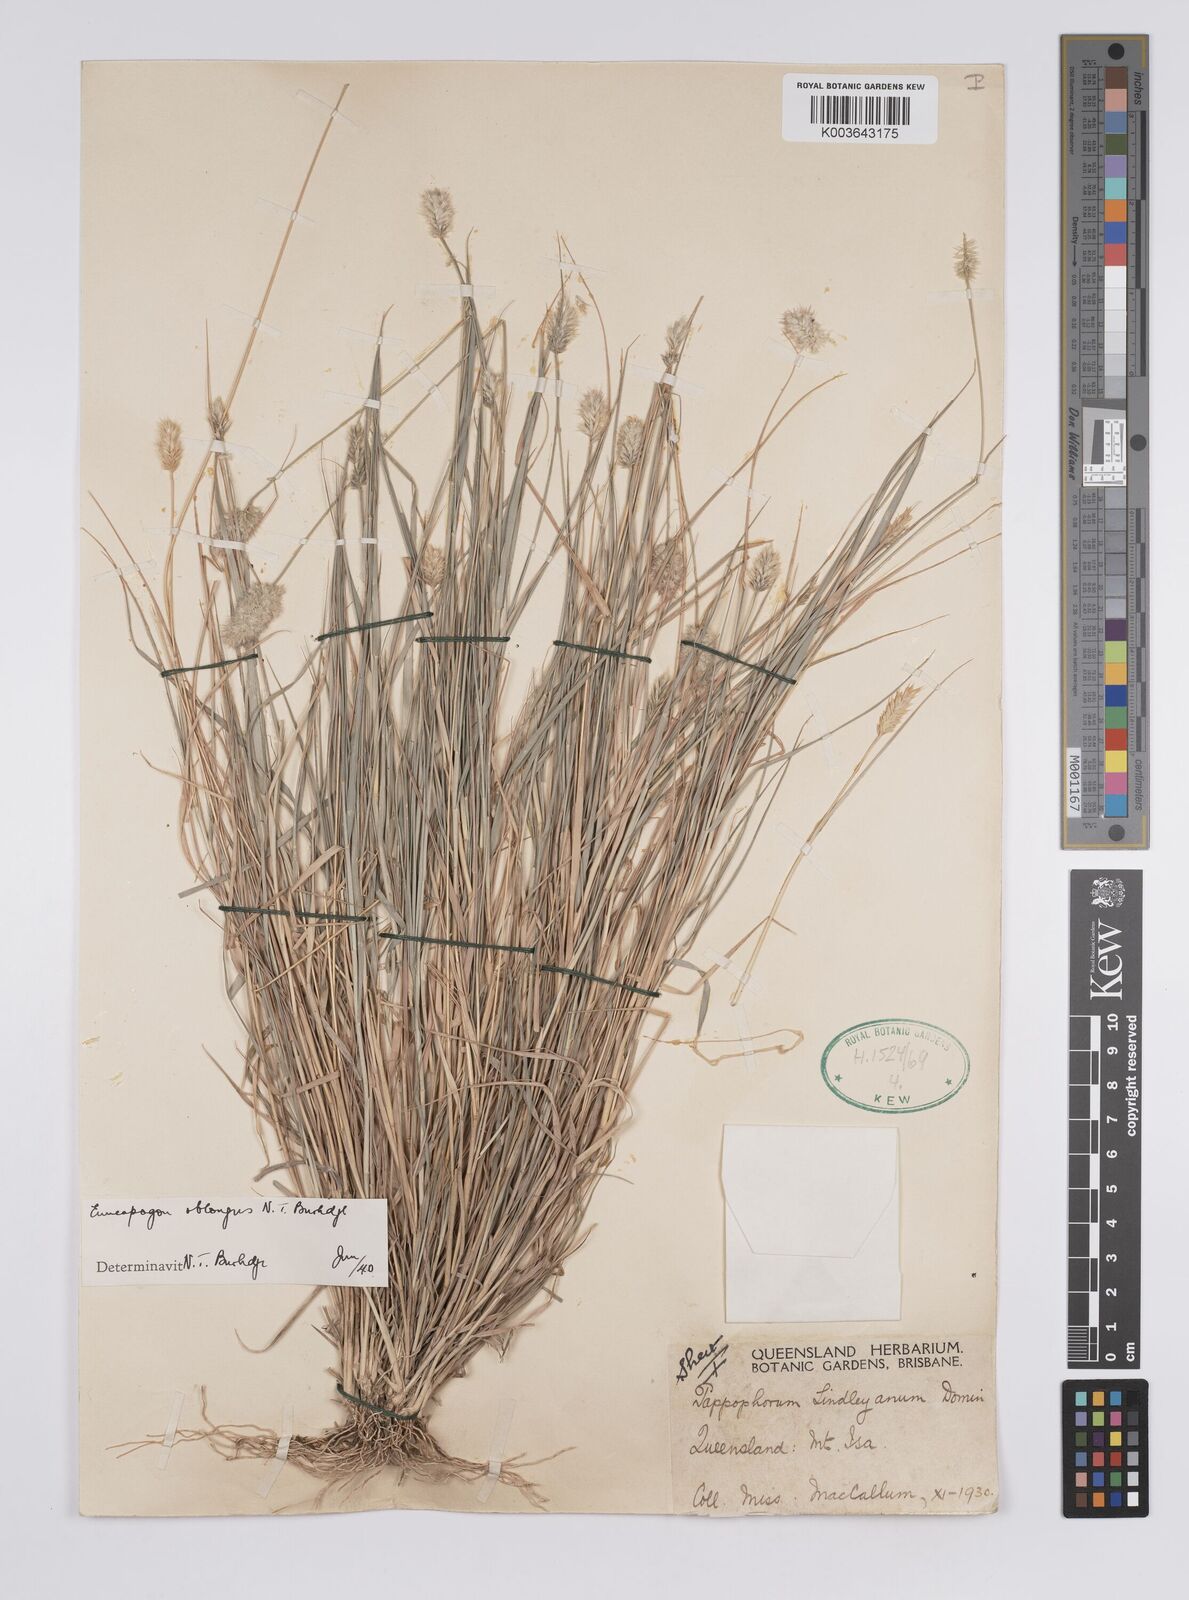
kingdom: Plantae
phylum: Tracheophyta
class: Liliopsida
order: Poales
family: Poaceae
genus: Enneapogon
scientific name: Enneapogon lindleyanus
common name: Conetop nineawn
